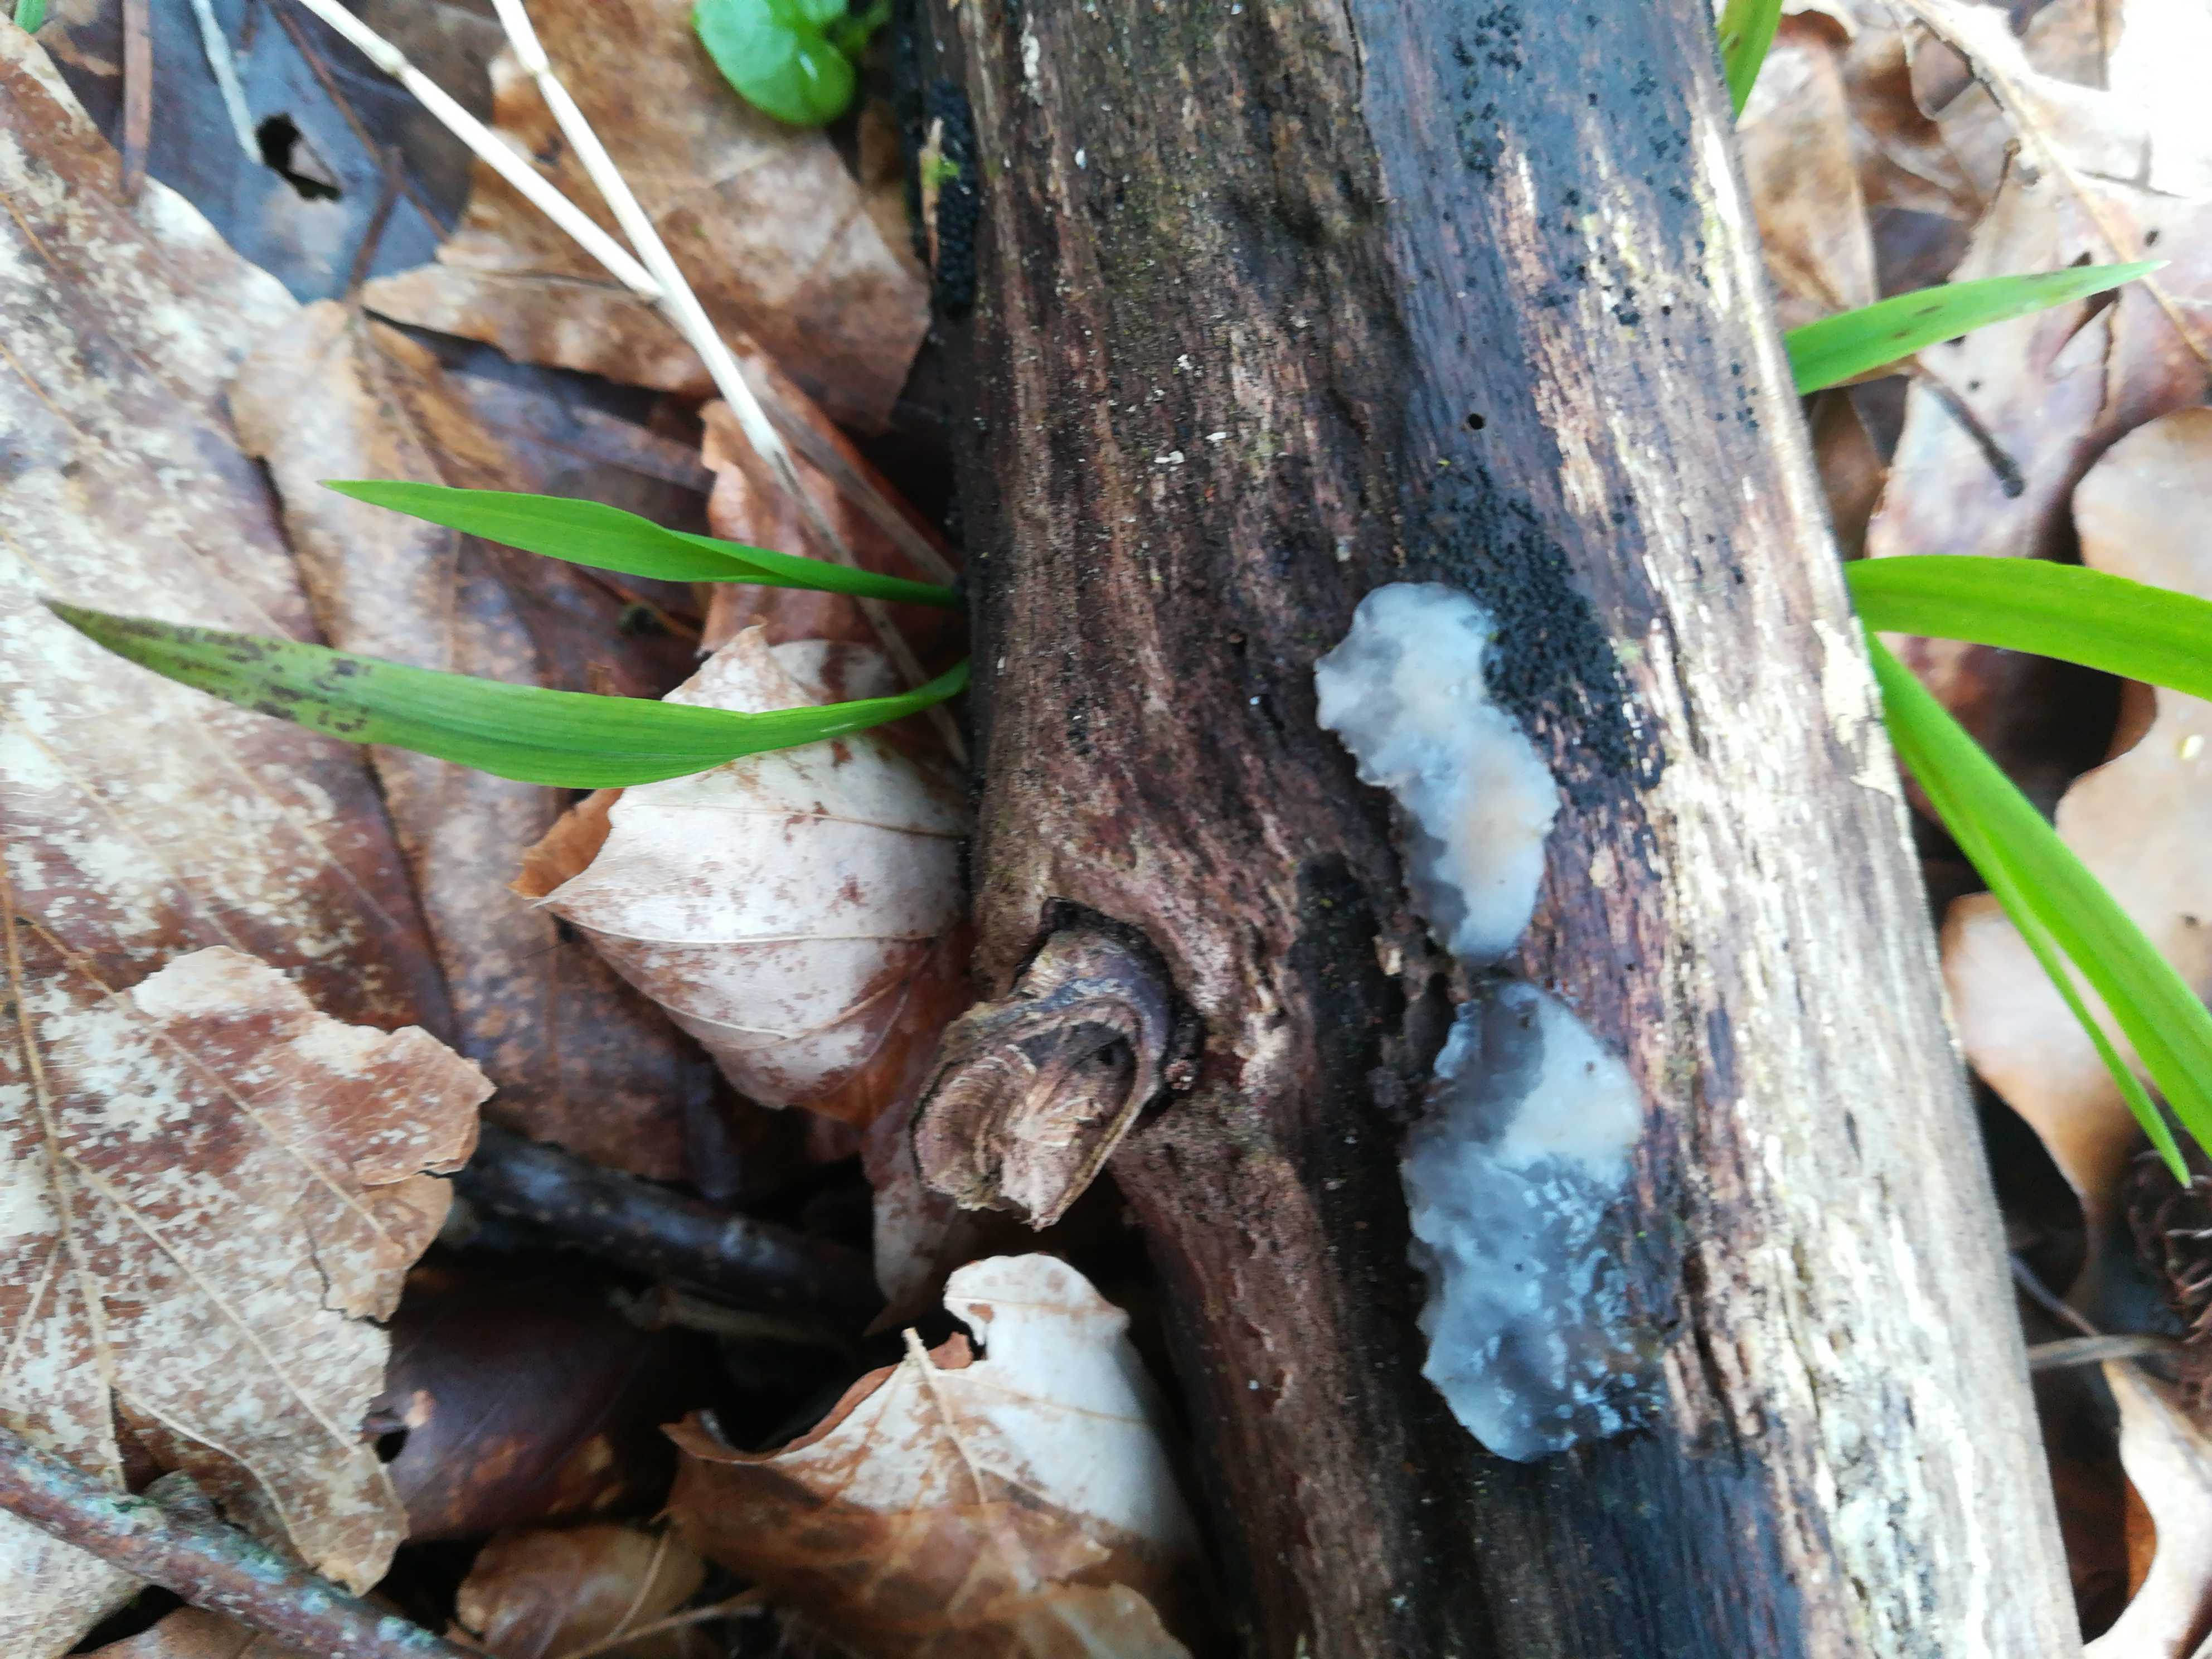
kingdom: Fungi
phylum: Basidiomycota
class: Agaricomycetes
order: Auriculariales
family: Hyaloriaceae
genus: Myxarium
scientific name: Myxarium nucleatum
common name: klar bævretop
